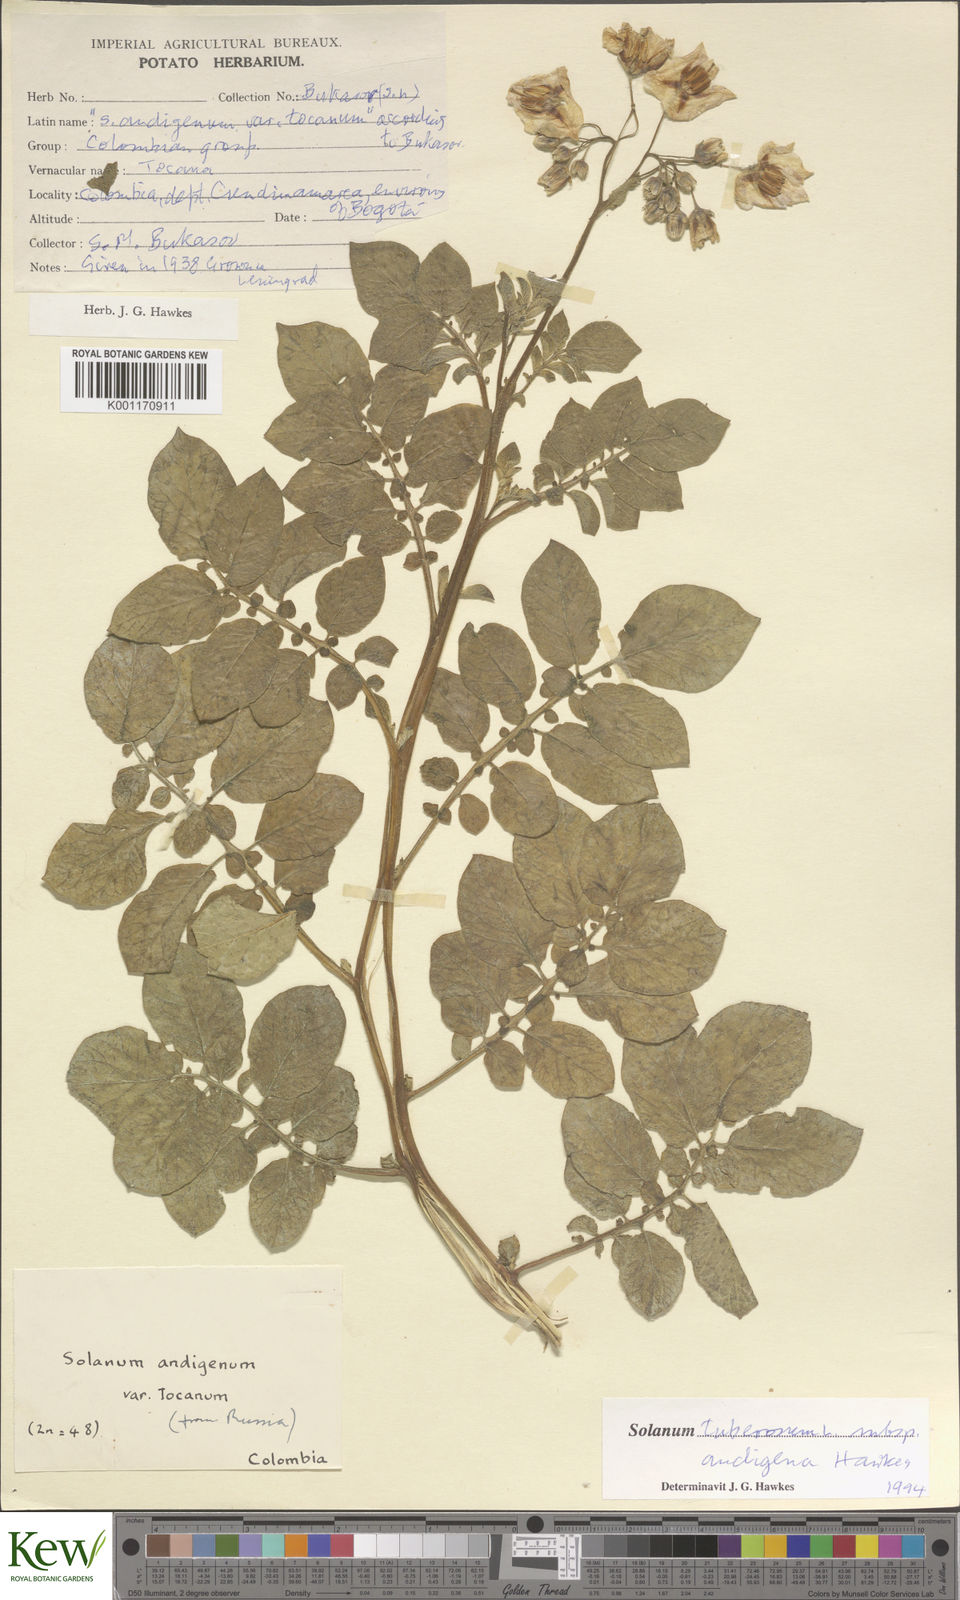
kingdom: Plantae
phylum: Tracheophyta
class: Magnoliopsida
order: Solanales
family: Solanaceae
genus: Solanum
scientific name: Solanum tuberosum
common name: Potato
